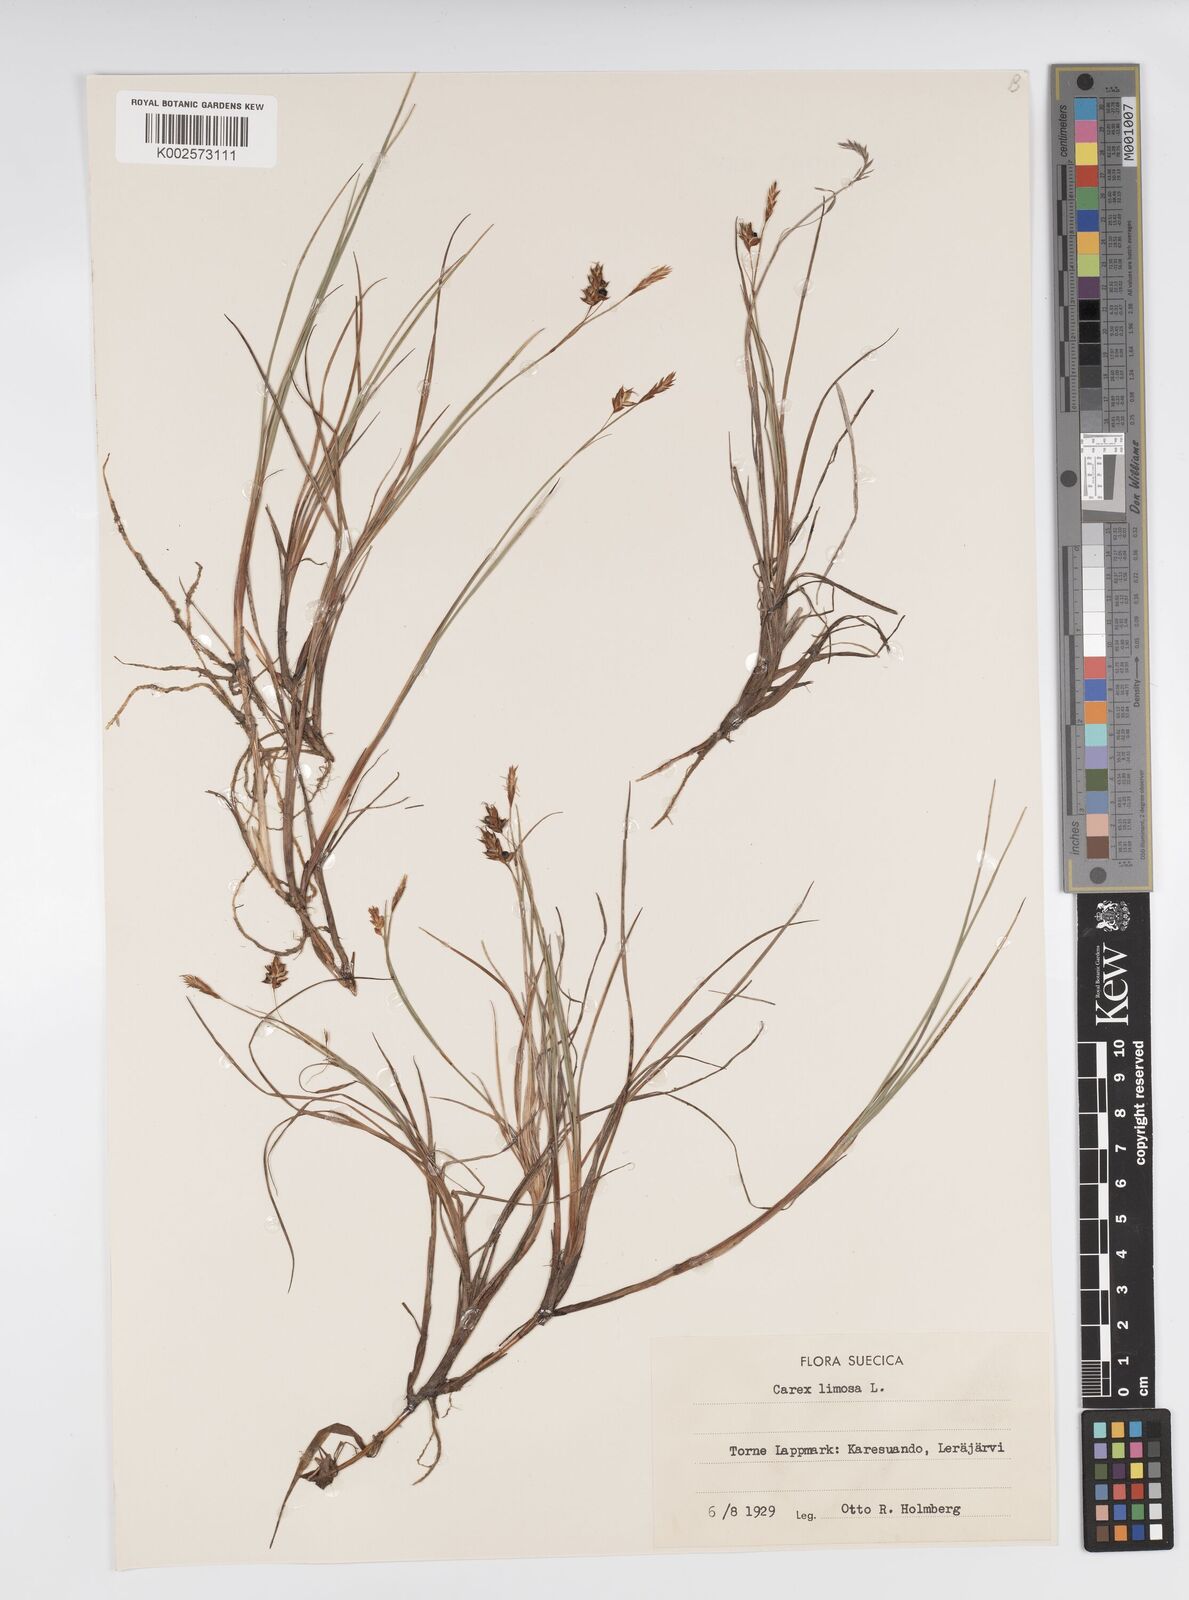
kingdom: Plantae
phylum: Tracheophyta
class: Liliopsida
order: Poales
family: Cyperaceae
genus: Carex
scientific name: Carex limosa
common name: Bog sedge
